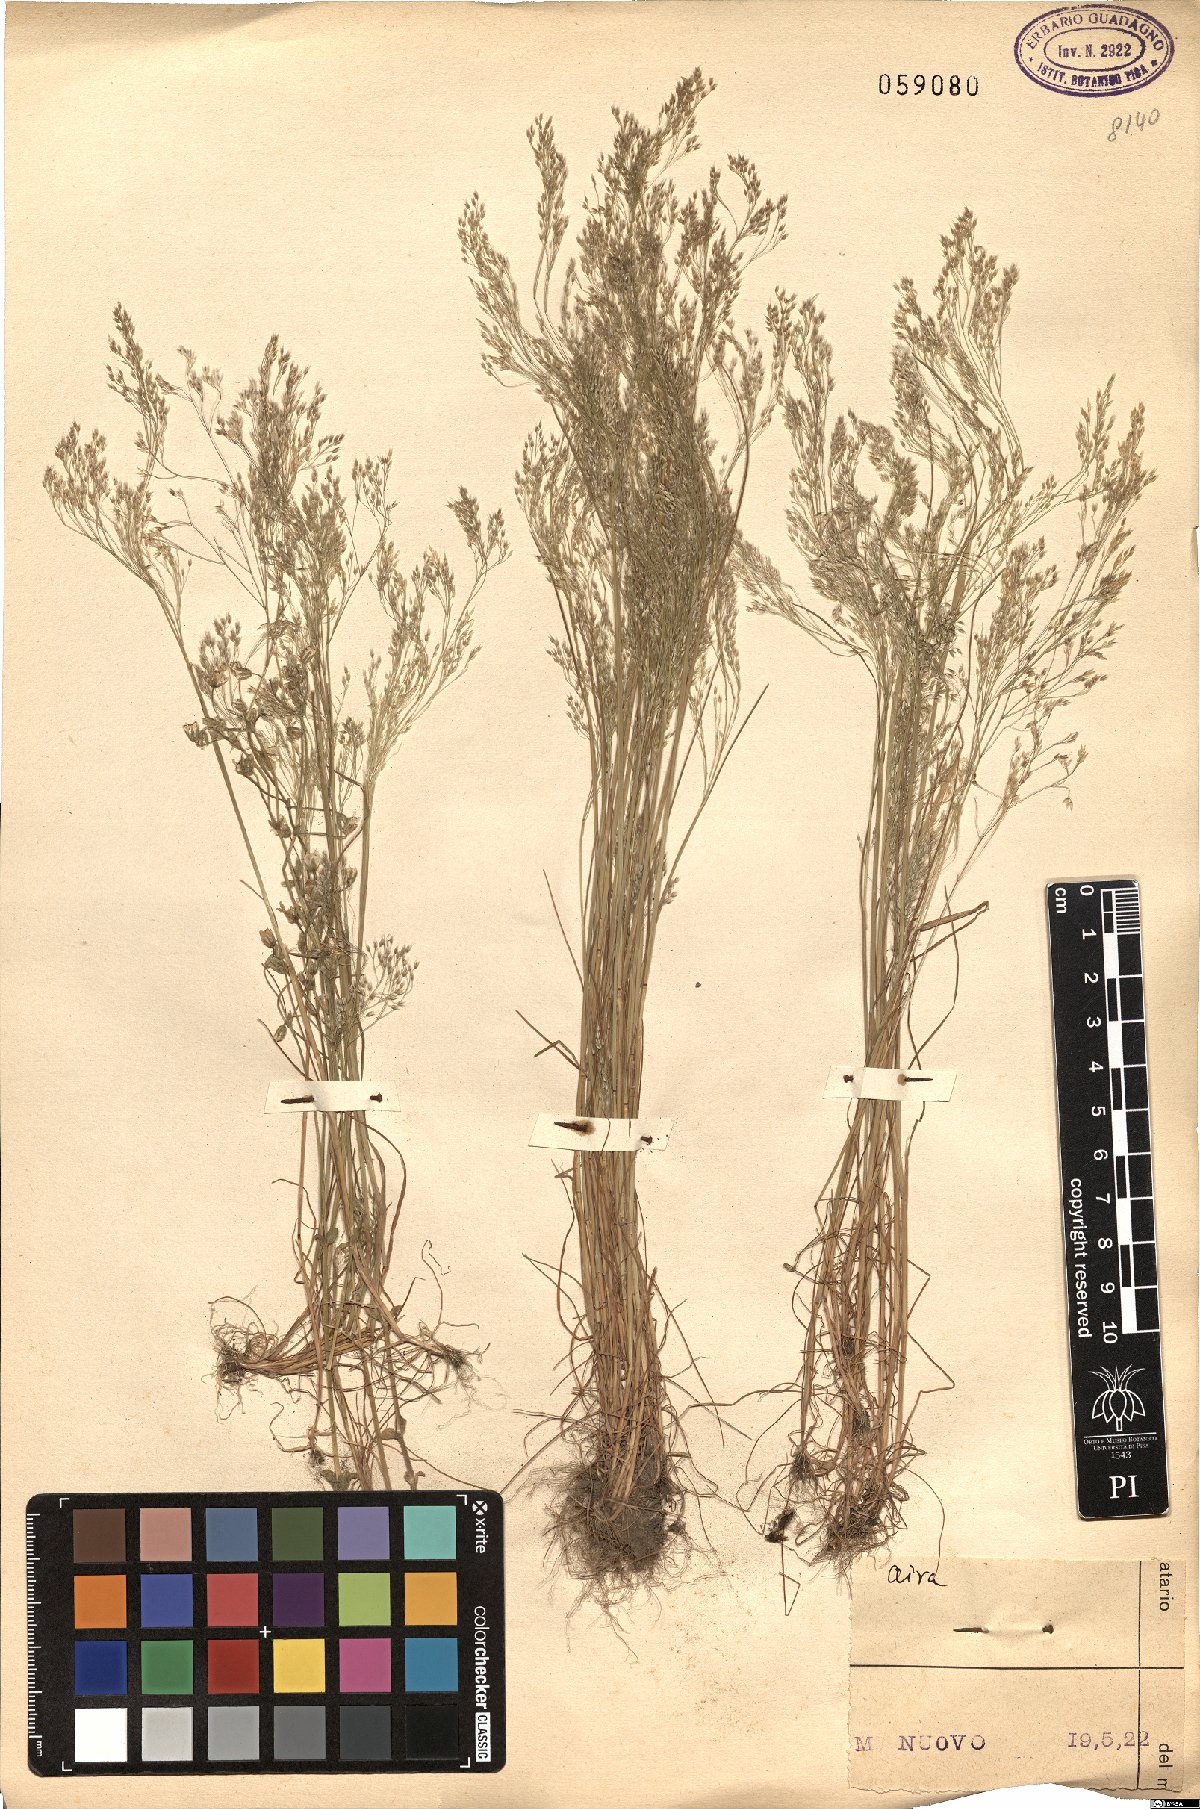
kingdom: Plantae
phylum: Tracheophyta
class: Liliopsida
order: Poales
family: Poaceae
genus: Aira
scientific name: Aira
